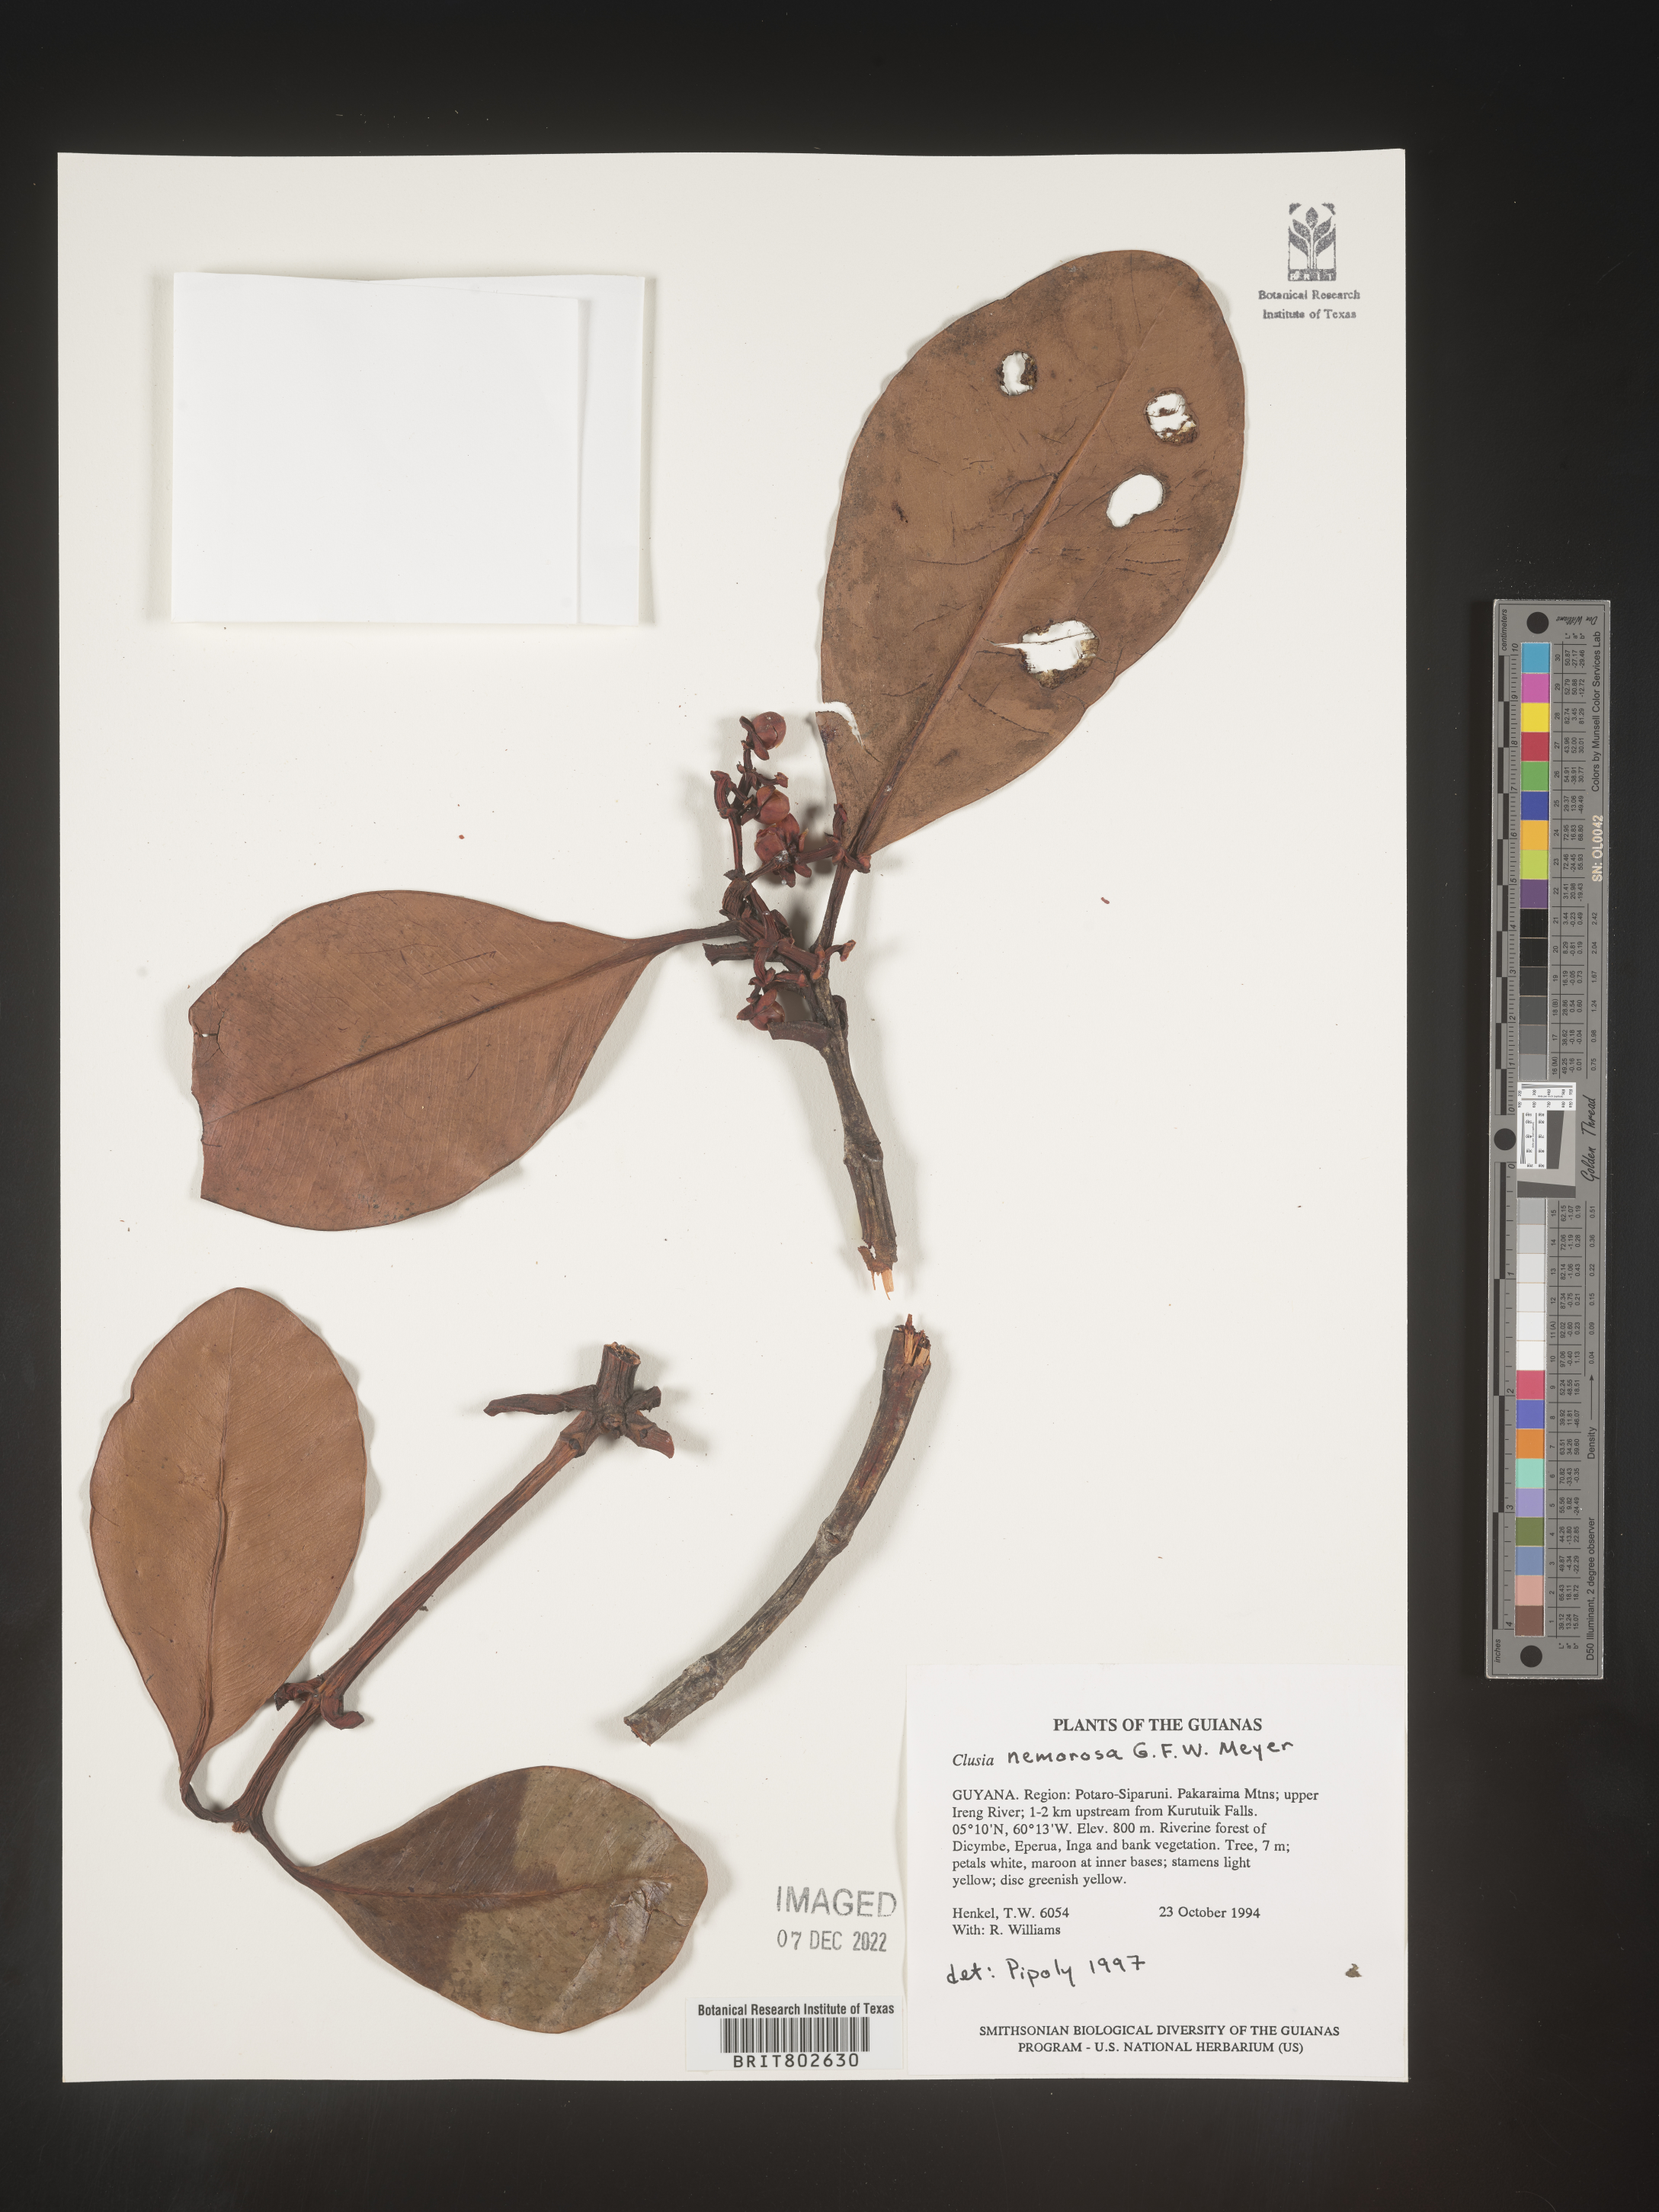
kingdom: Plantae
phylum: Tracheophyta
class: Magnoliopsida
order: Malpighiales
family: Clusiaceae
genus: Clusia
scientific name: Clusia nemorosa
